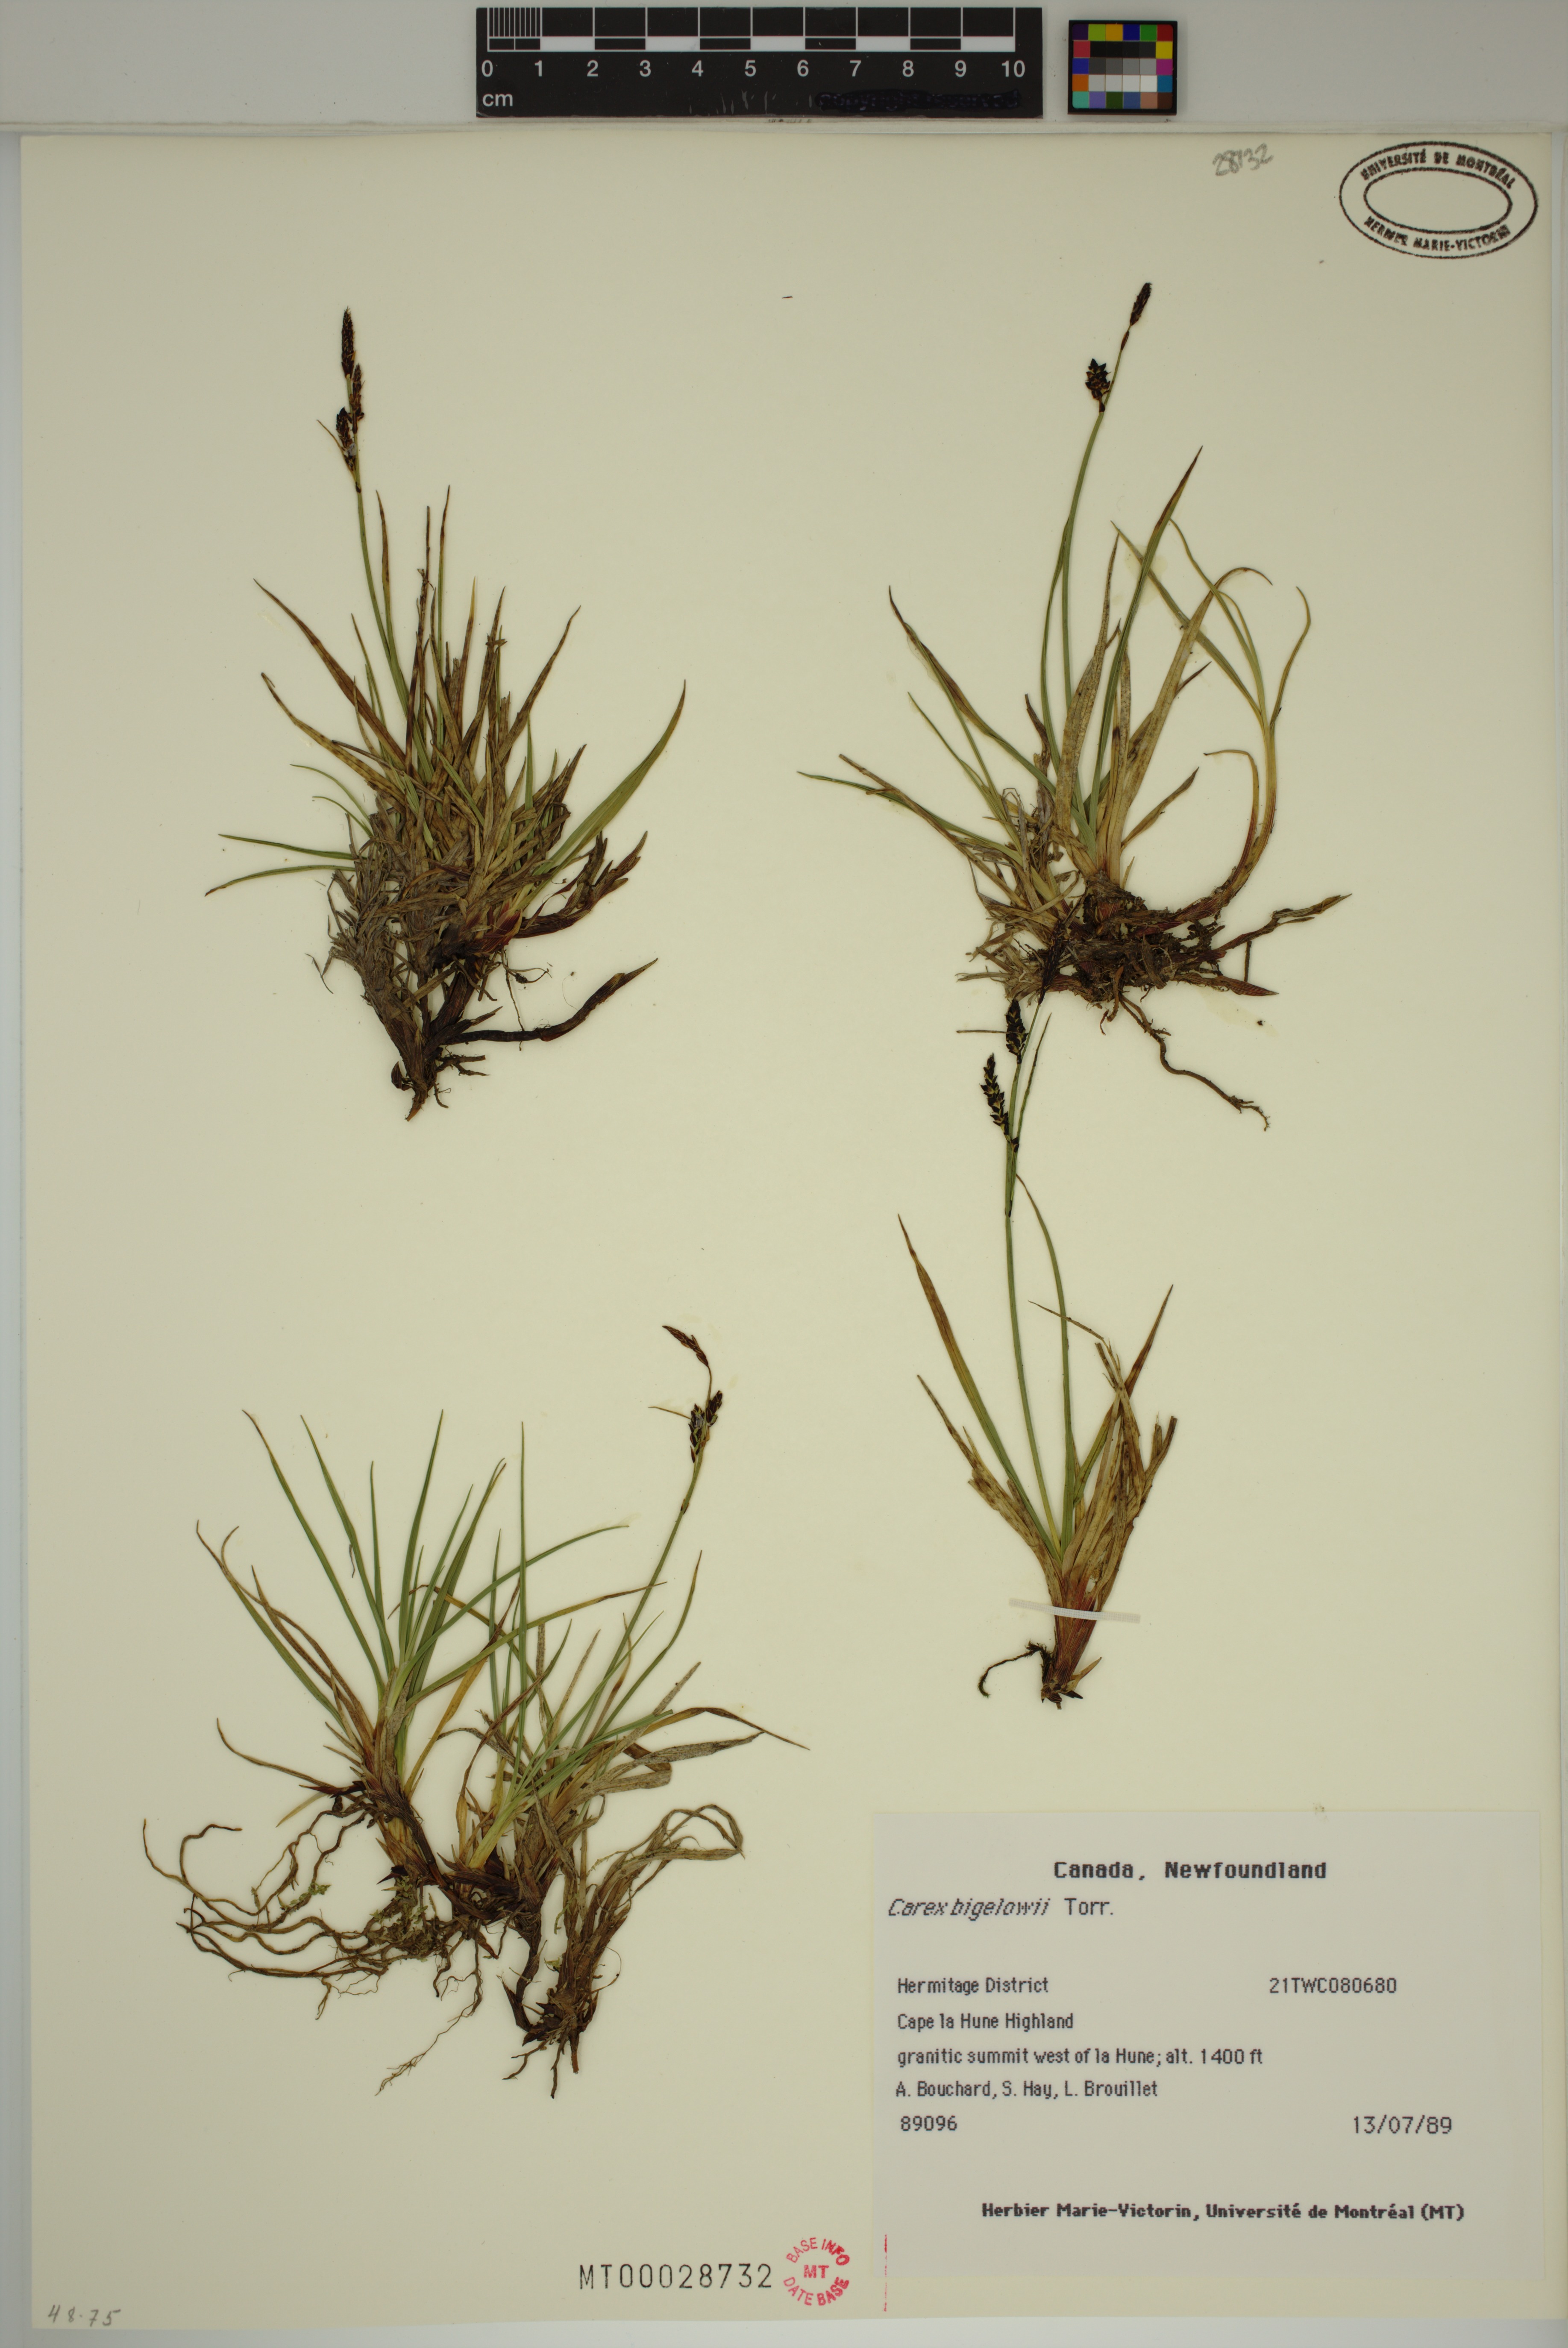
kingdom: Plantae
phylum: Tracheophyta
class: Liliopsida
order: Poales
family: Cyperaceae
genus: Carex
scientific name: Carex bigelowii
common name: Stiff sedge
